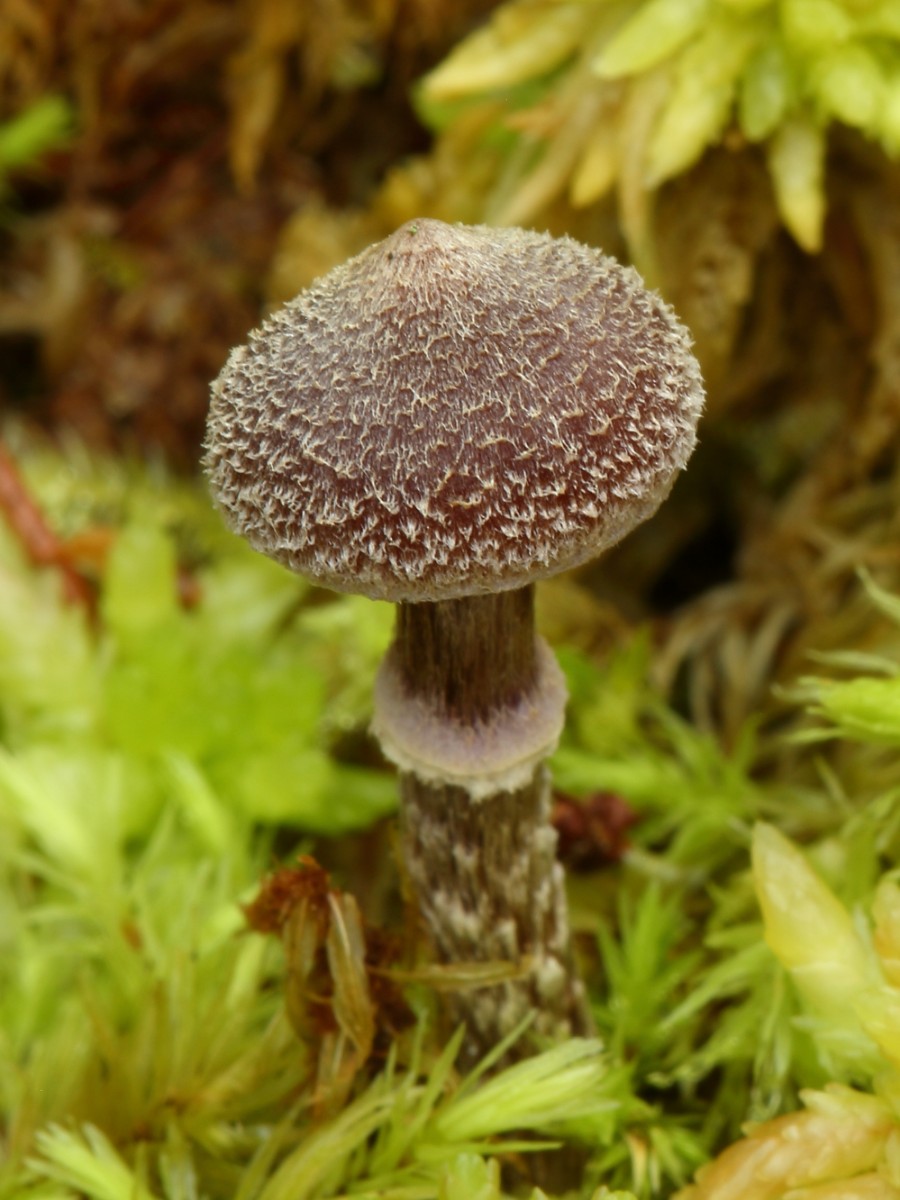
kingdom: Fungi
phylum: Basidiomycota
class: Agaricomycetes
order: Agaricales
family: Cortinariaceae
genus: Cortinarius
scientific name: Cortinarius
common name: pelargonie-slørhat
